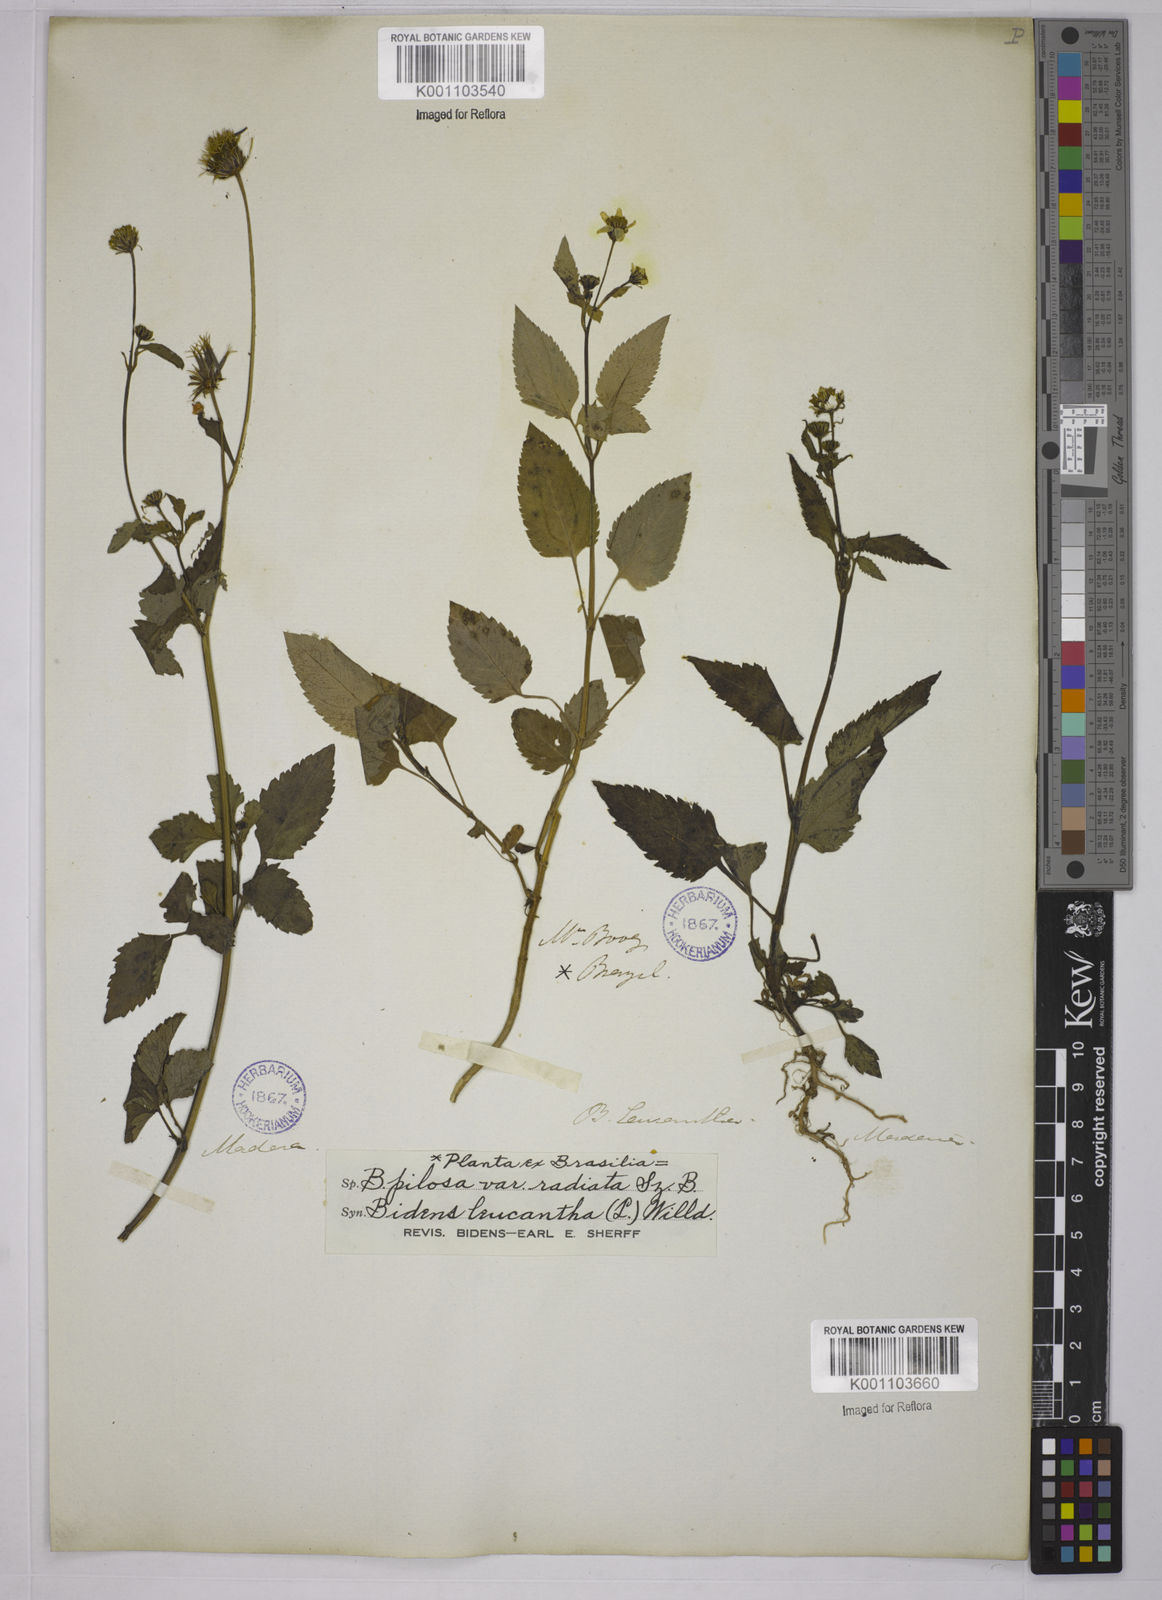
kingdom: Plantae
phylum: Tracheophyta
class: Magnoliopsida
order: Asterales
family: Asteraceae
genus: Bidens
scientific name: Bidens pilosa
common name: Black-jack
